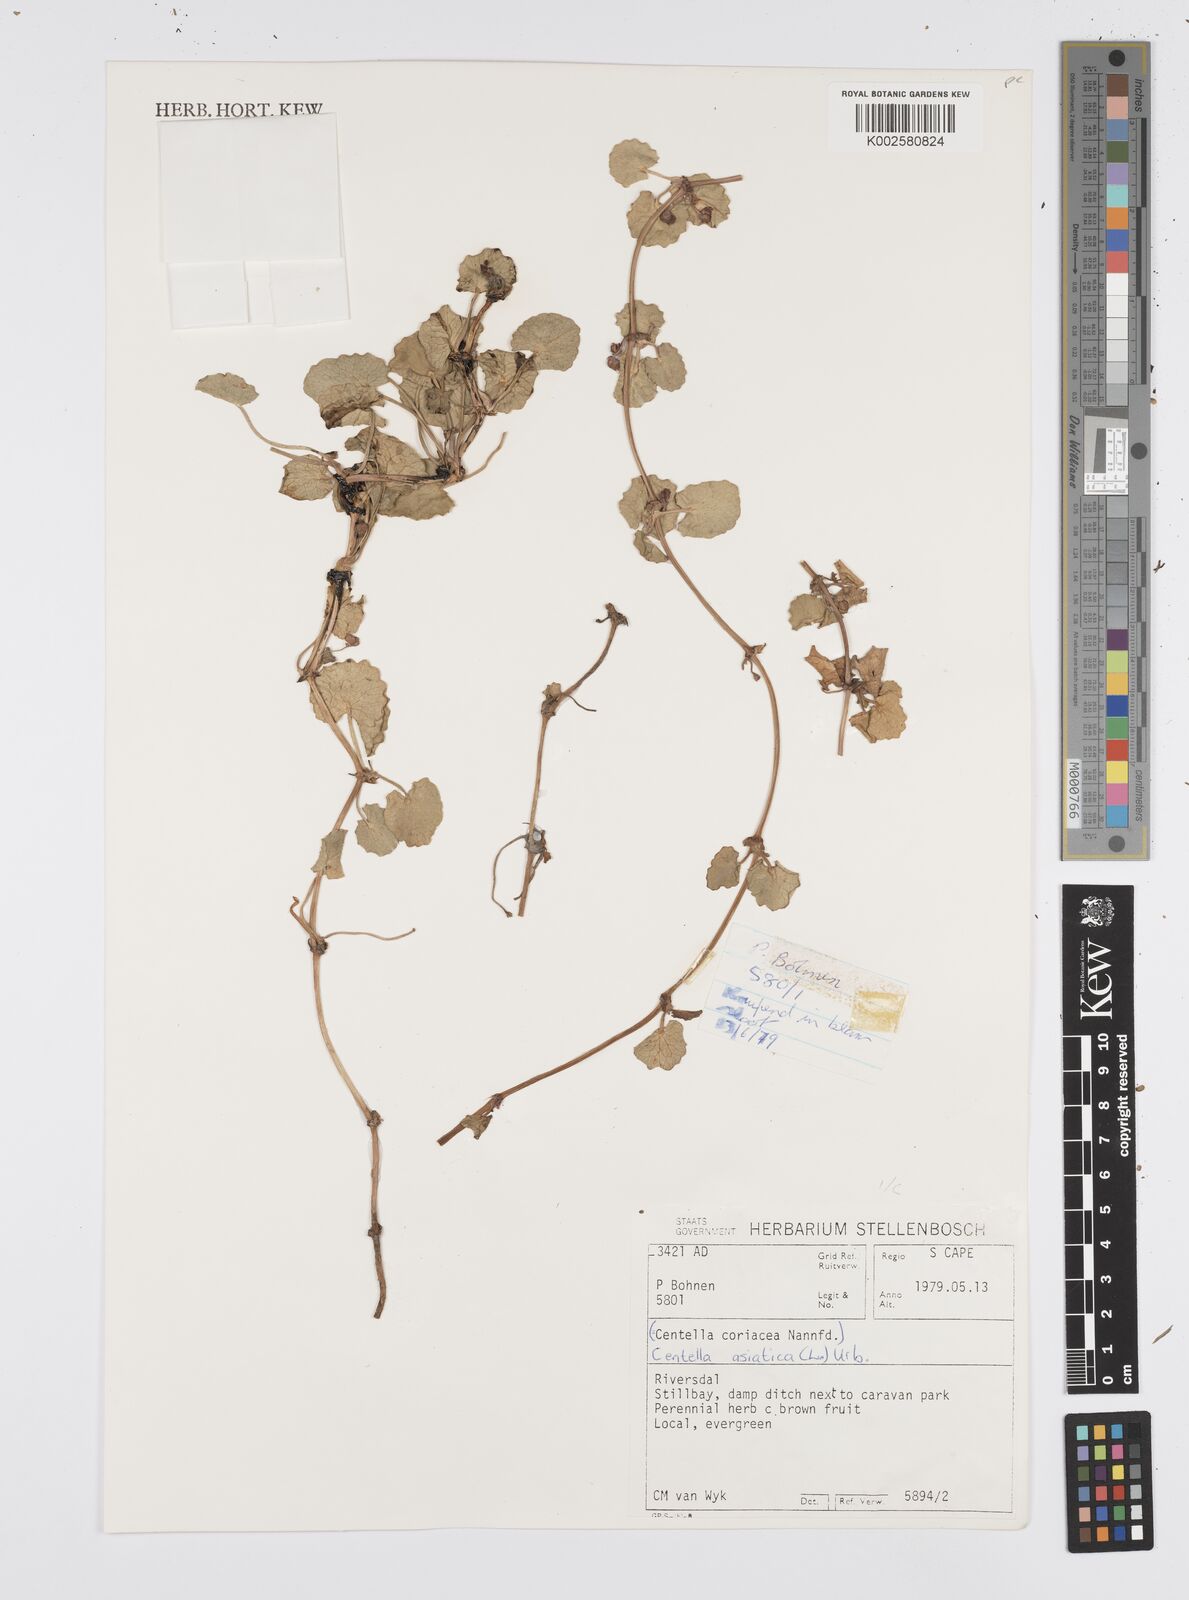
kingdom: Plantae
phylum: Tracheophyta
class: Magnoliopsida
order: Apiales
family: Apiaceae
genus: Centella
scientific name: Centella coriacea
